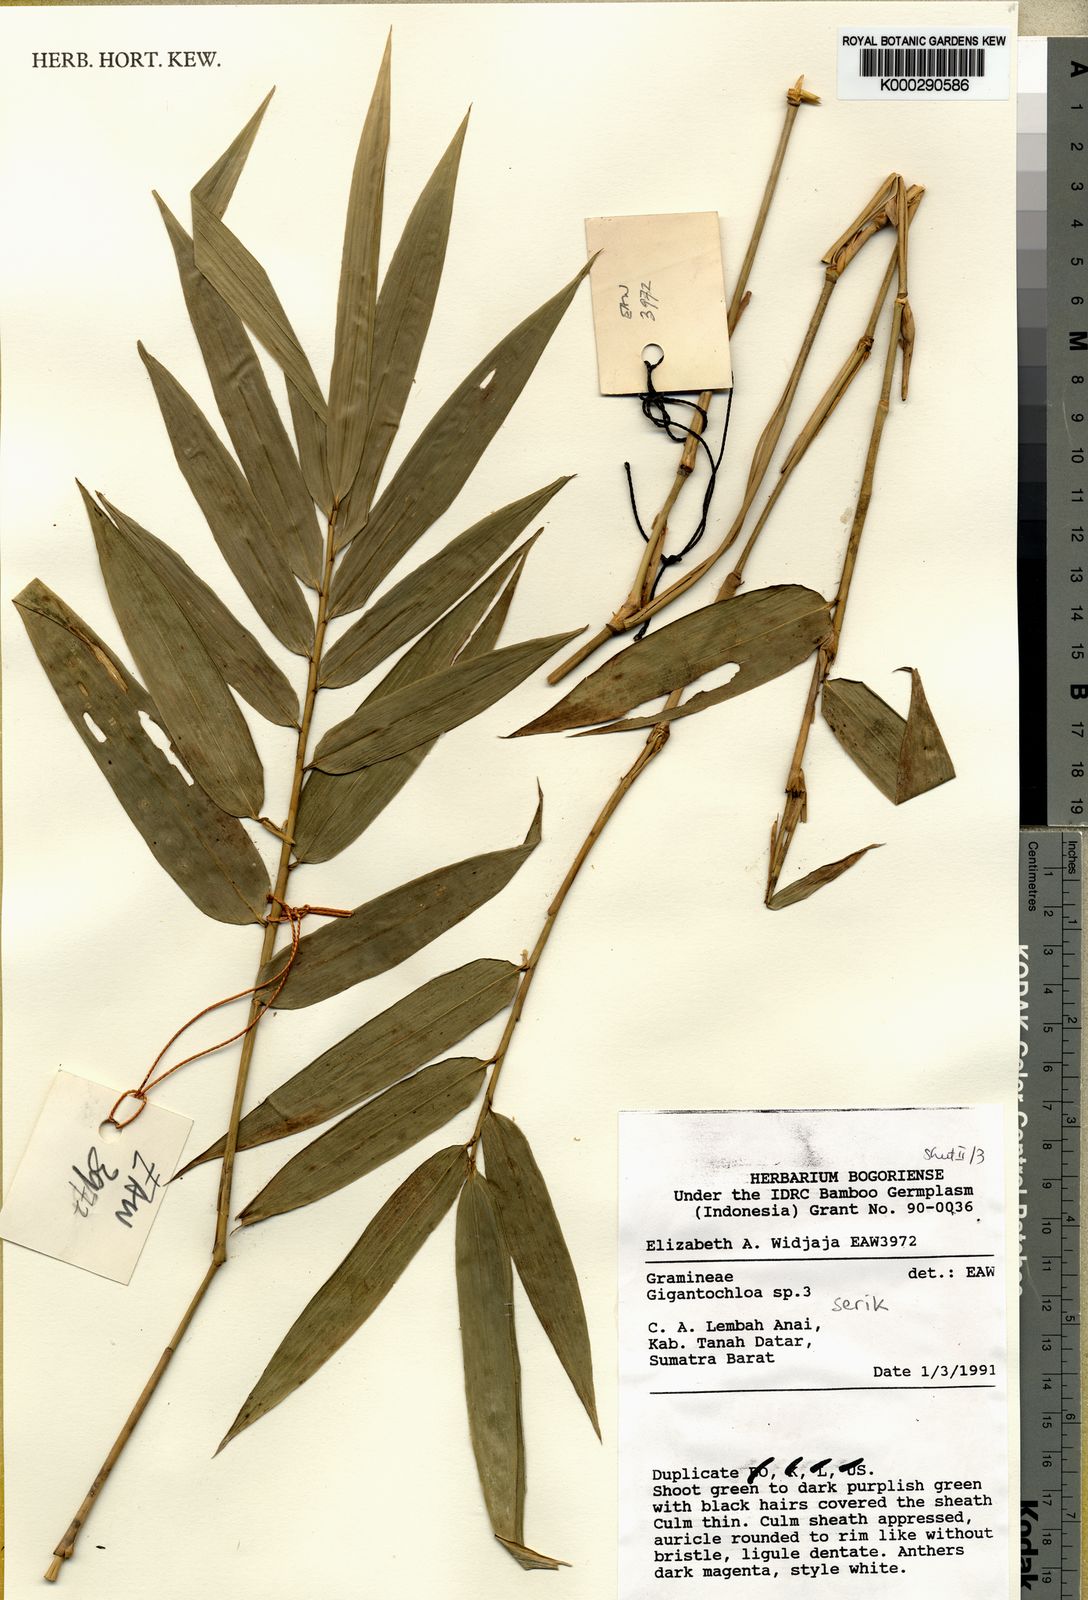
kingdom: Plantae
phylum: Tracheophyta
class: Liliopsida
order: Poales
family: Poaceae
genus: Gigantochloa
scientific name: Gigantochloa serik
